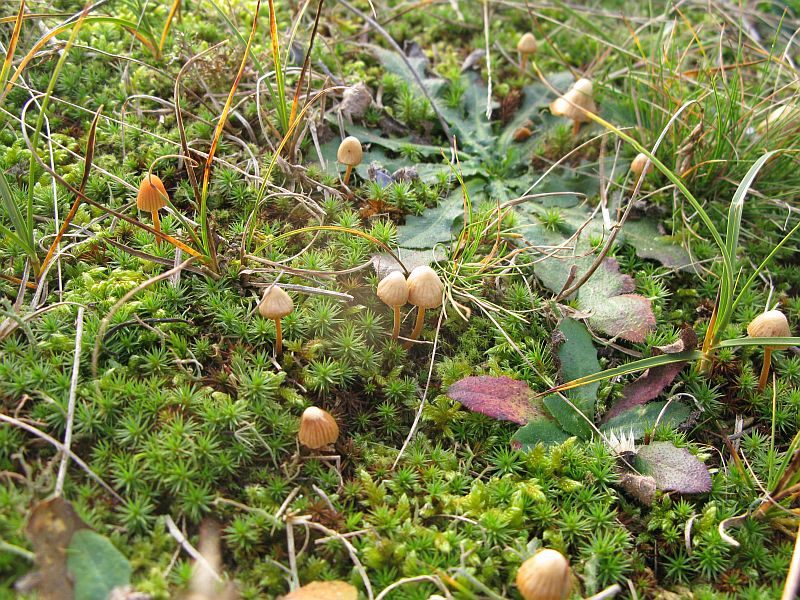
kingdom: Fungi
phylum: Basidiomycota
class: Agaricomycetes
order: Agaricales
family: Hymenogastraceae
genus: Galerina
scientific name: Galerina vittiformis
